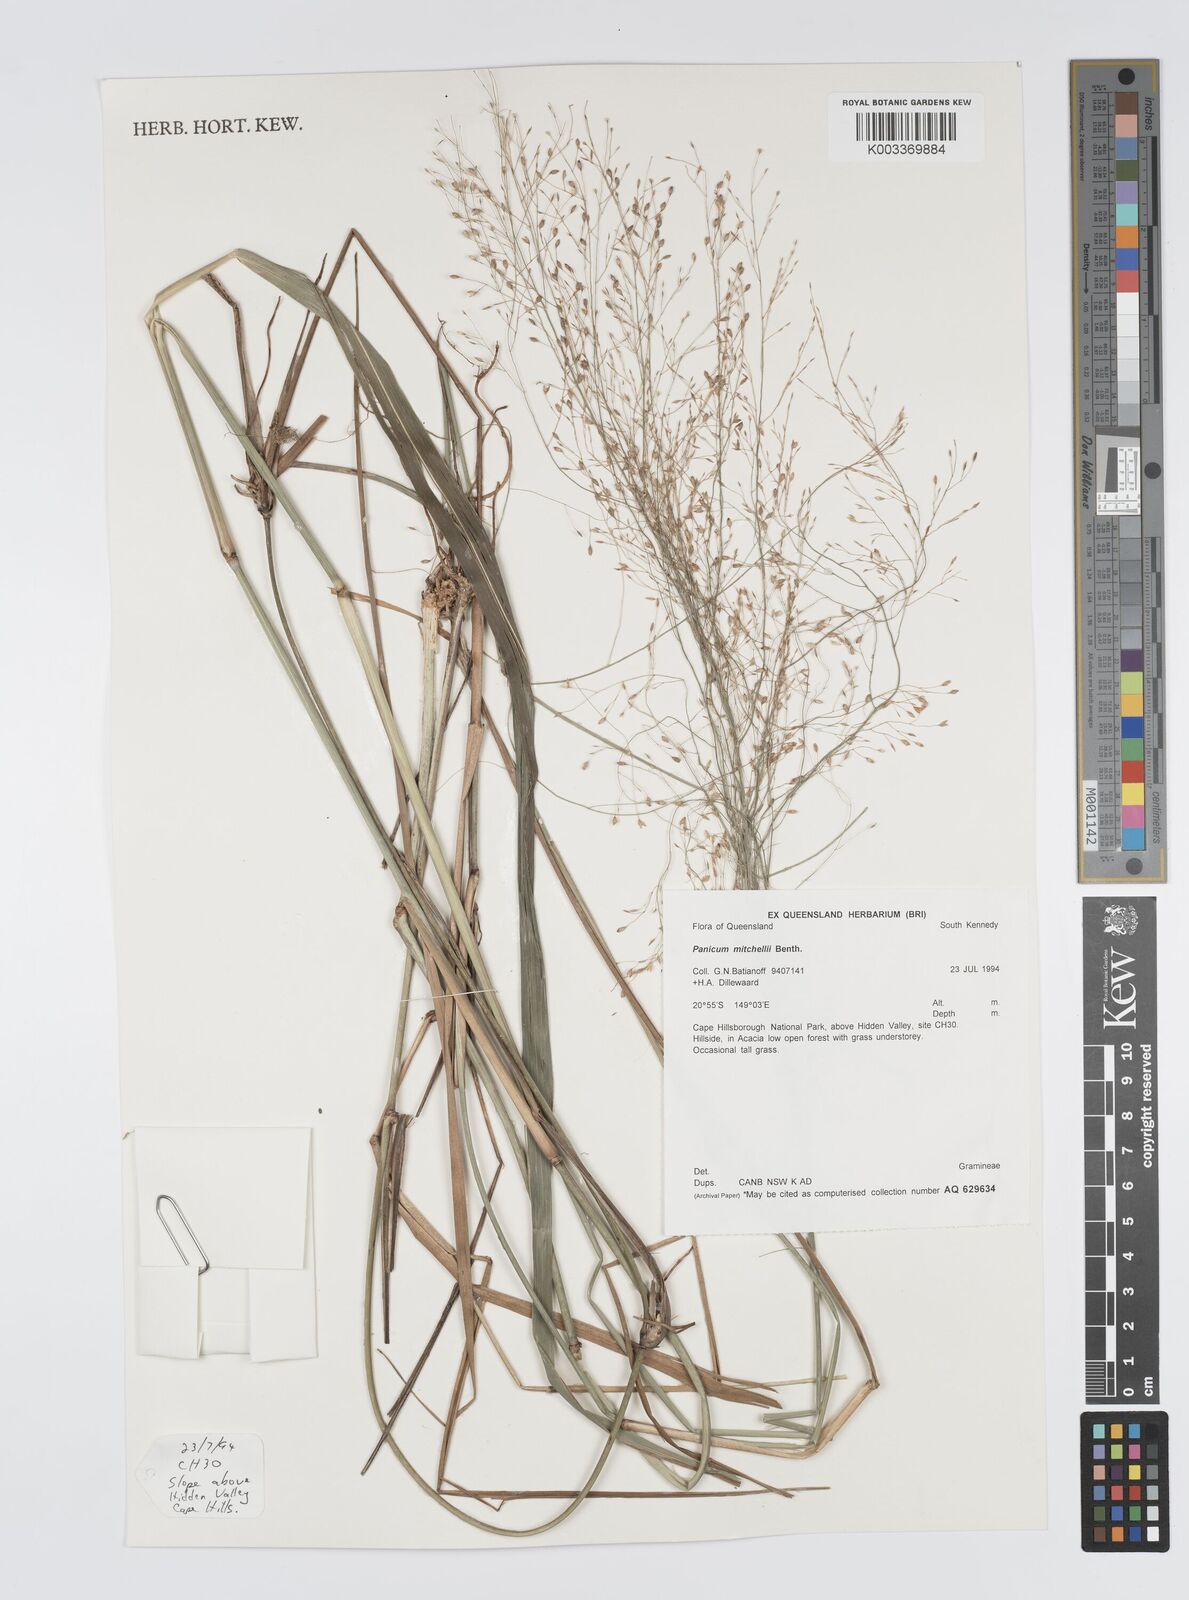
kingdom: Plantae
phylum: Tracheophyta
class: Liliopsida
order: Poales
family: Poaceae
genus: Panicum
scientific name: Panicum mitchellii
